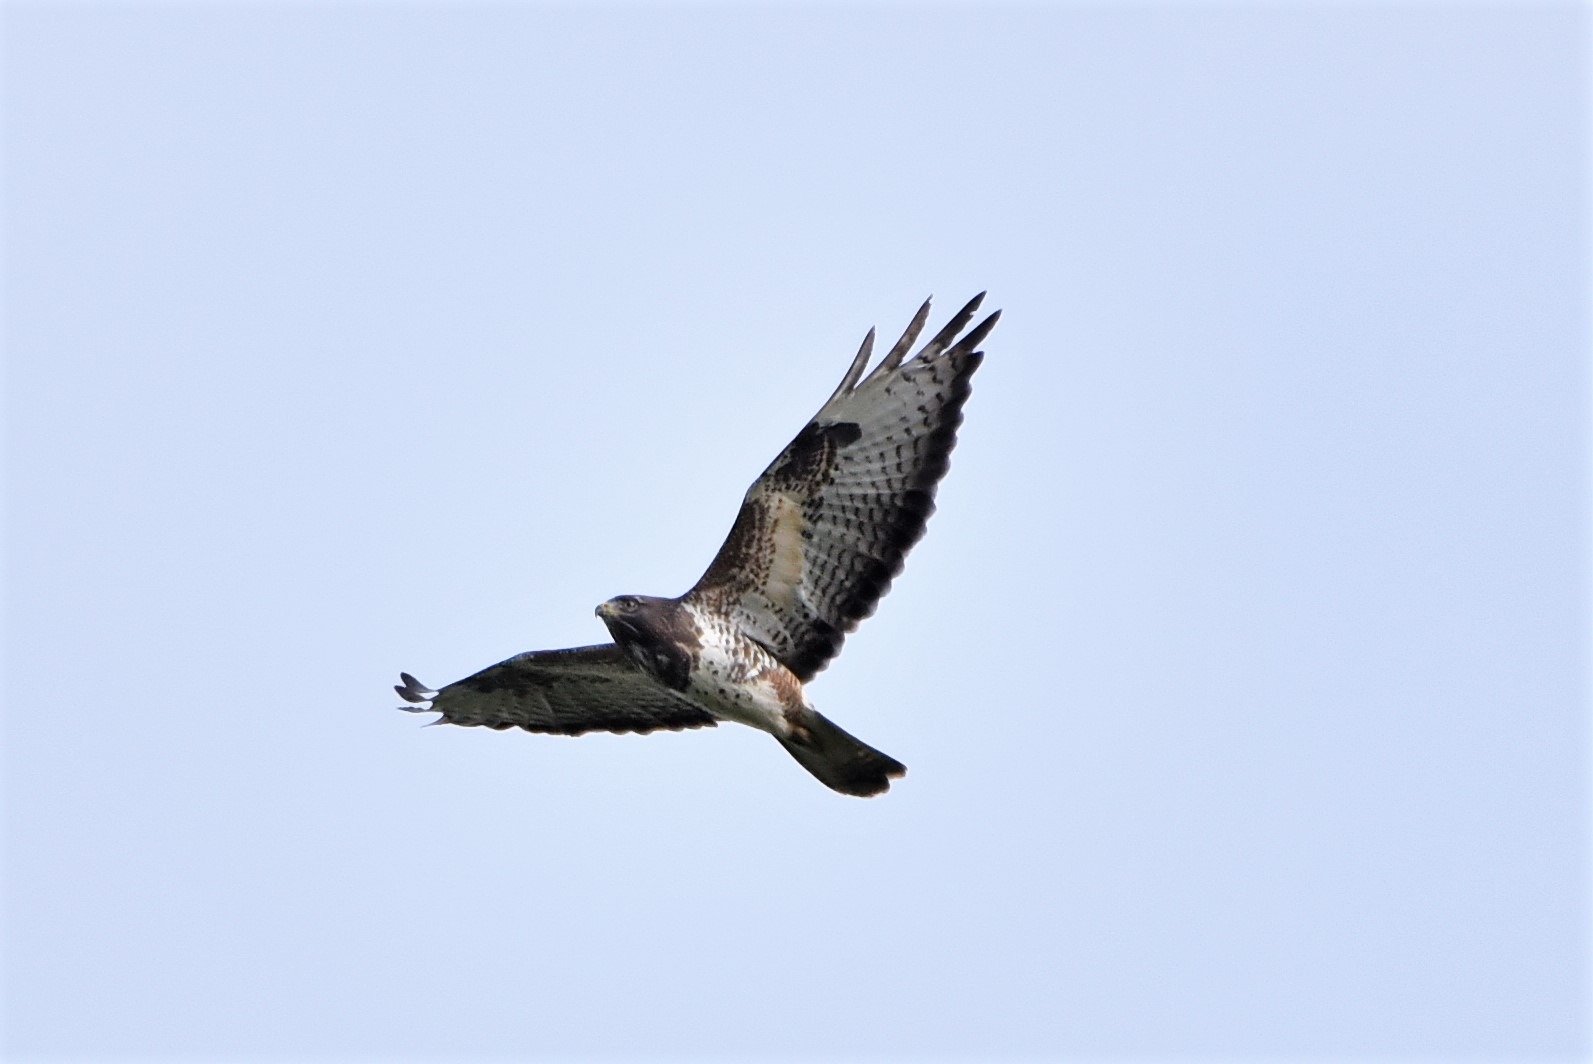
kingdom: Animalia
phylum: Chordata
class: Aves
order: Accipitriformes
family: Accipitridae
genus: Buteo
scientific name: Buteo buteo
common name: Musvåge
